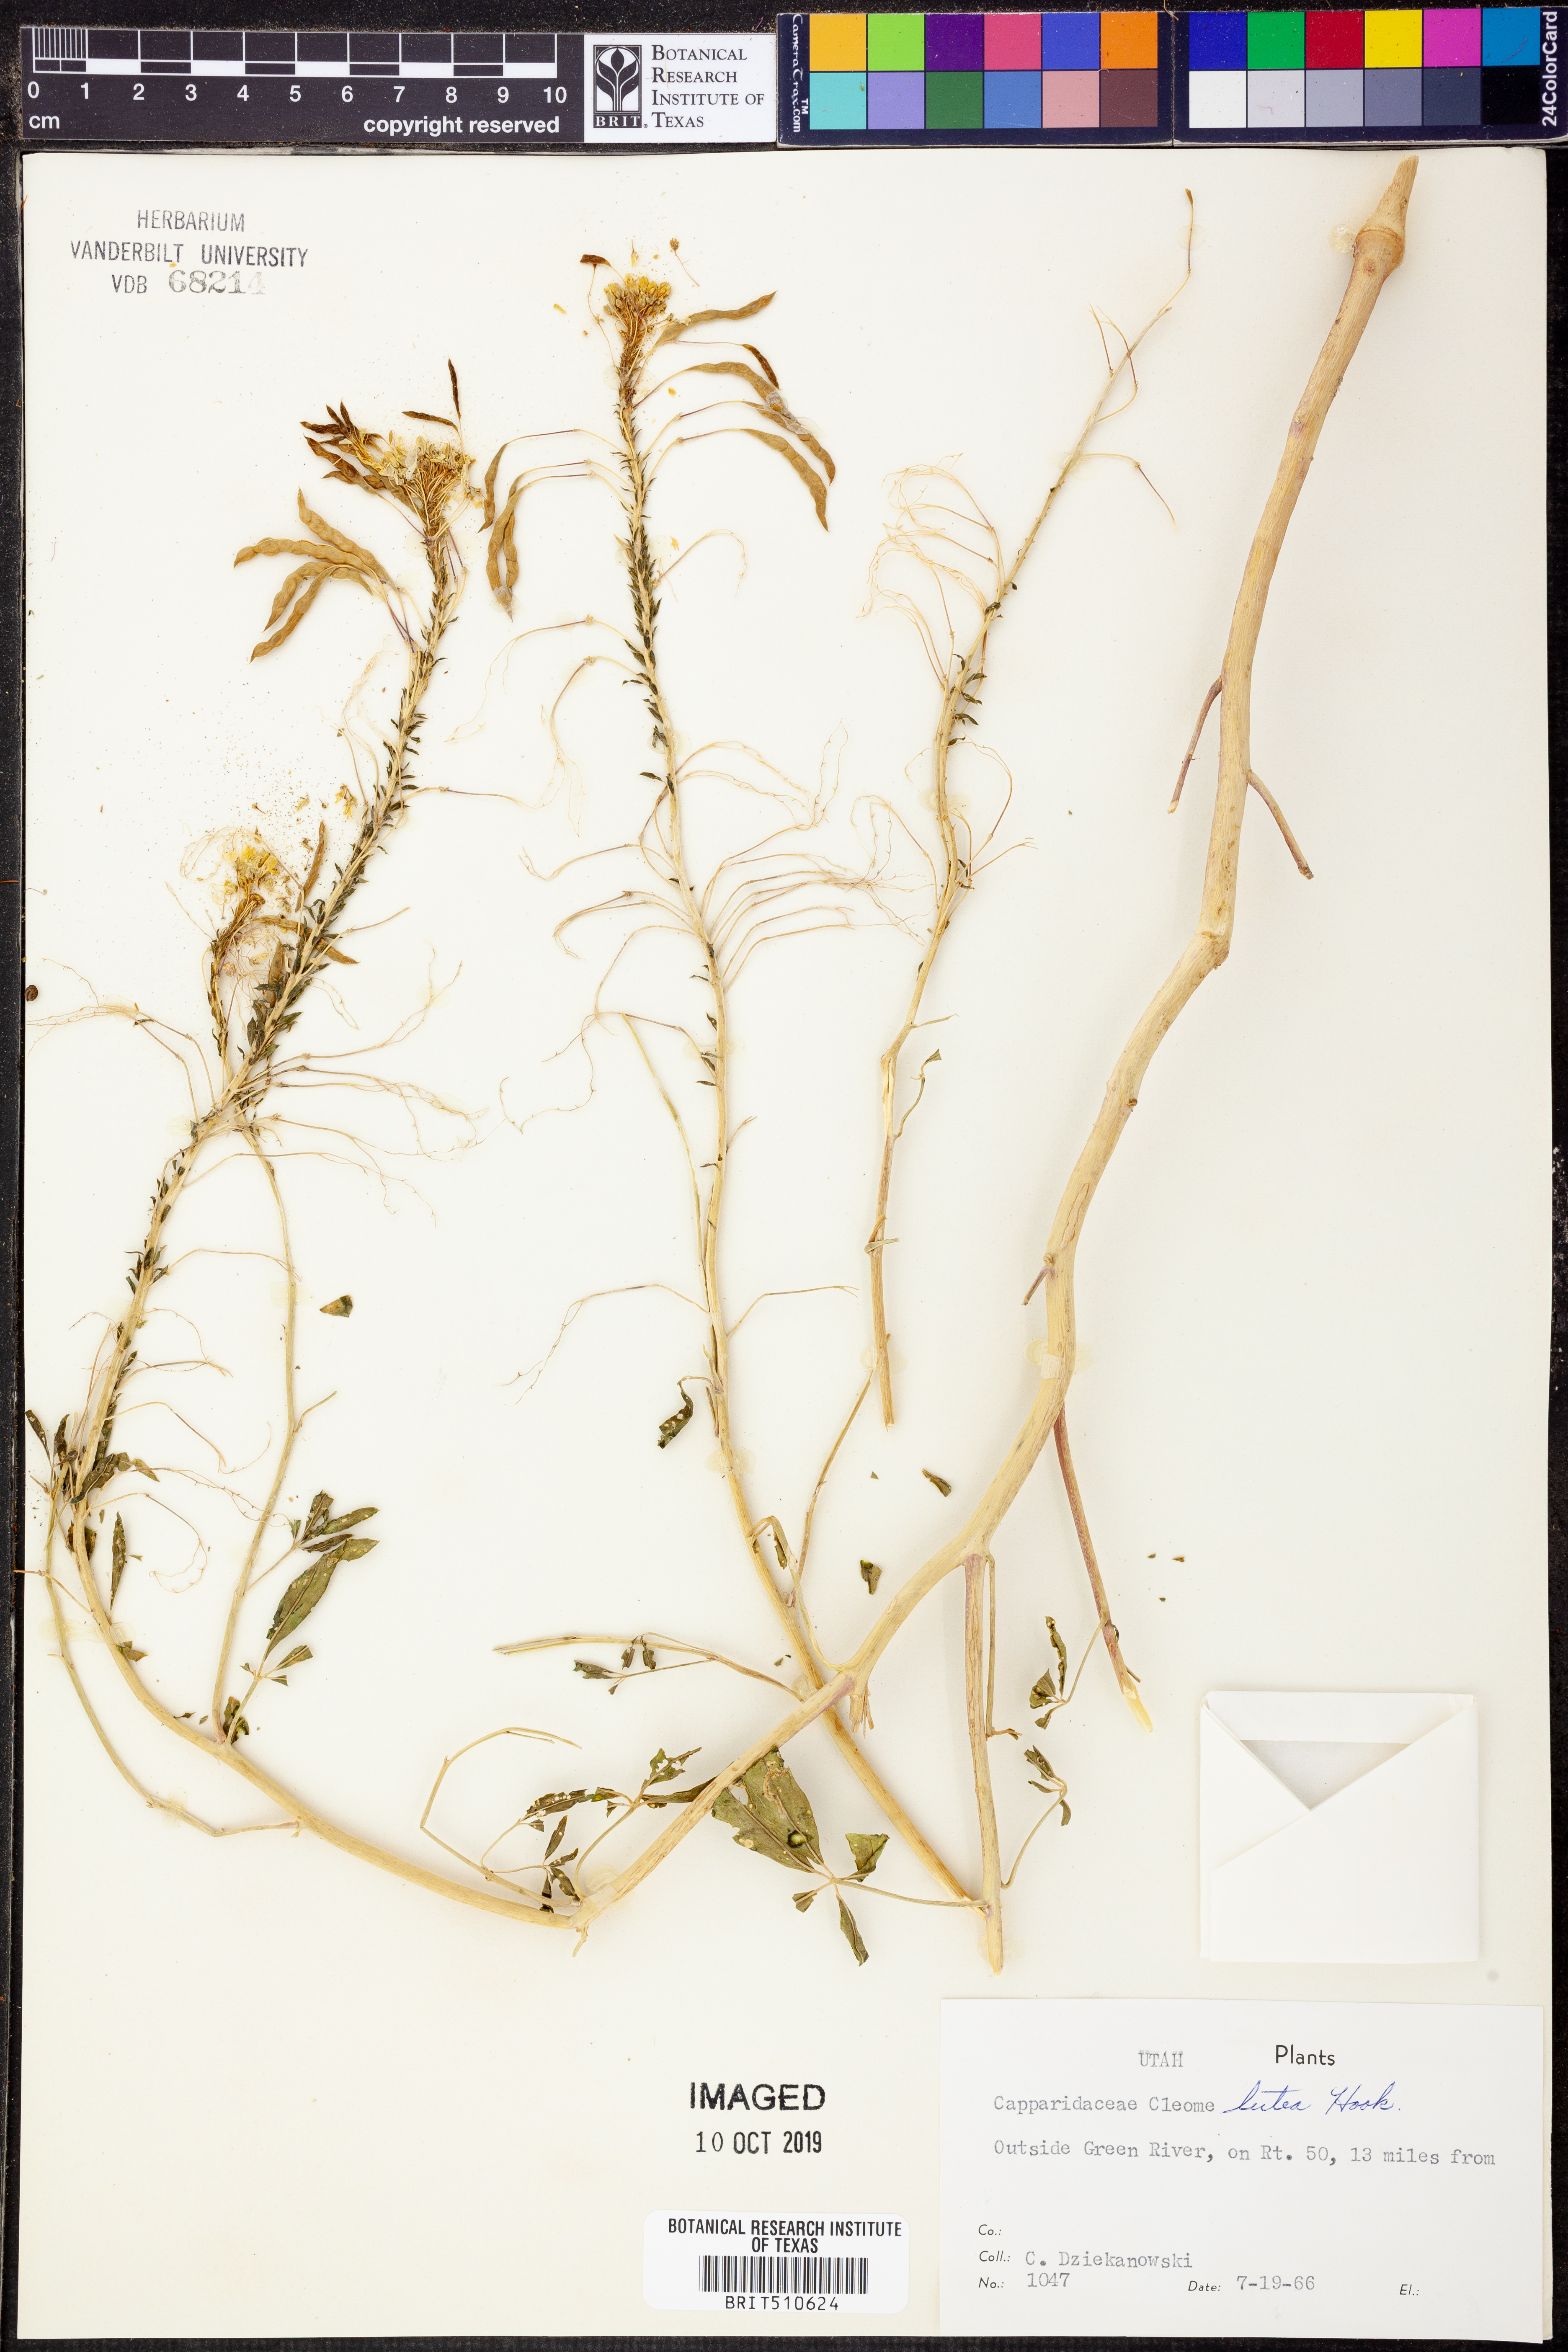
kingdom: Plantae
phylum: Tracheophyta
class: Magnoliopsida
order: Brassicales
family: Cleomaceae
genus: Cleomella
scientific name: Cleomella lutea
